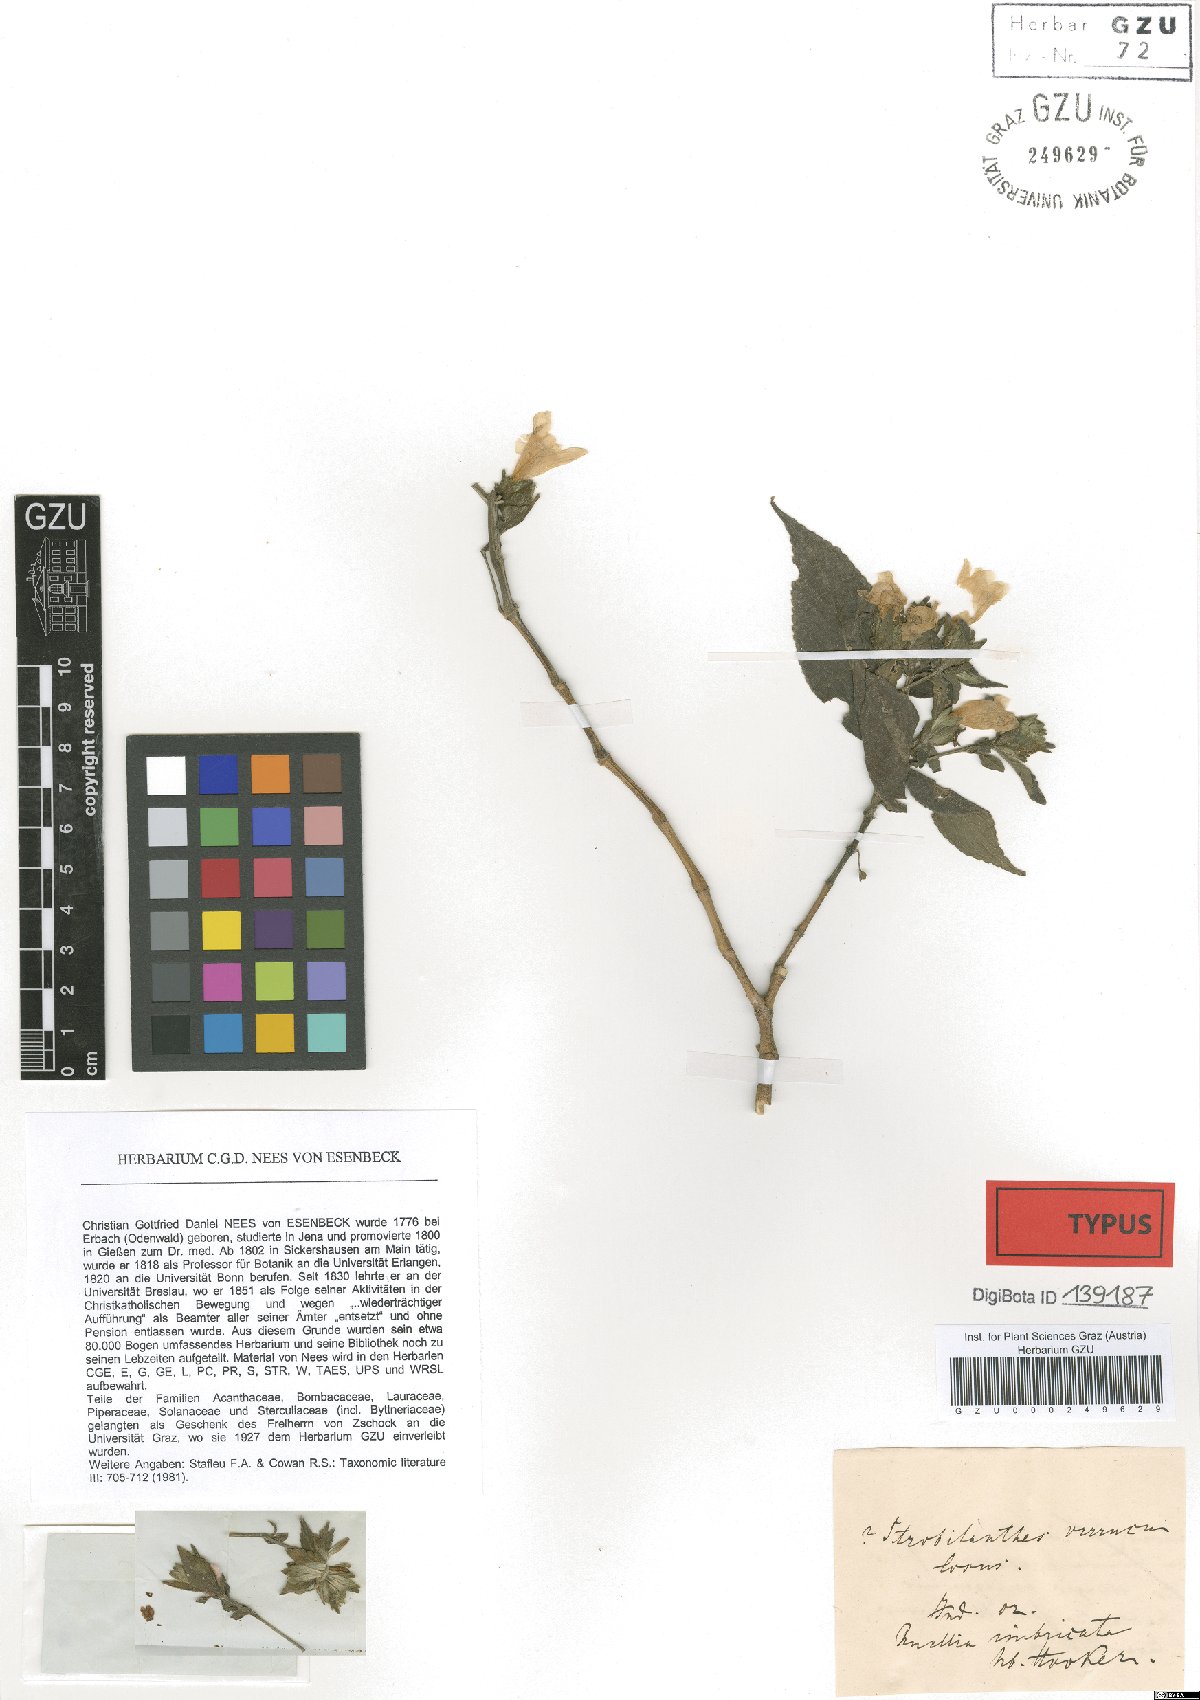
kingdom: Plantae
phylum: Tracheophyta
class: Magnoliopsida
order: Lamiales
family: Acanthaceae
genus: Strobilanthes
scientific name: Strobilanthes verruculosa
